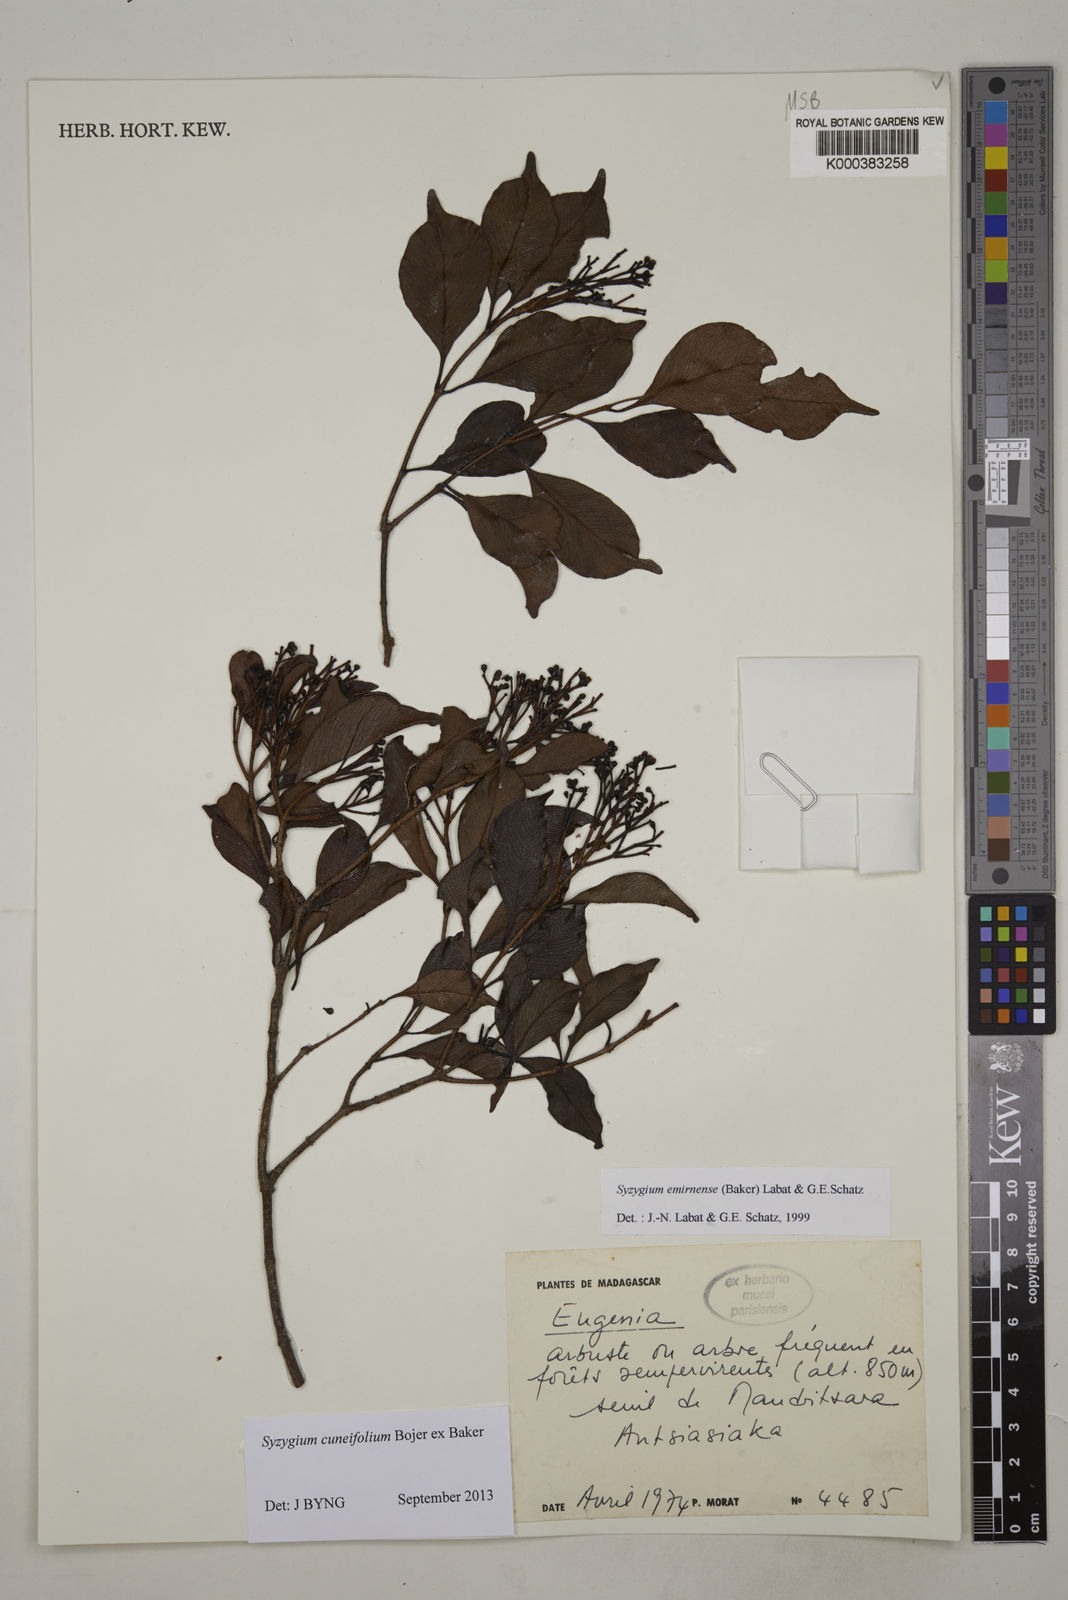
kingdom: Plantae
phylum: Tracheophyta
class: Magnoliopsida
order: Myrtales
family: Myrtaceae
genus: Syzygium
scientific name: Syzygium emirnense
